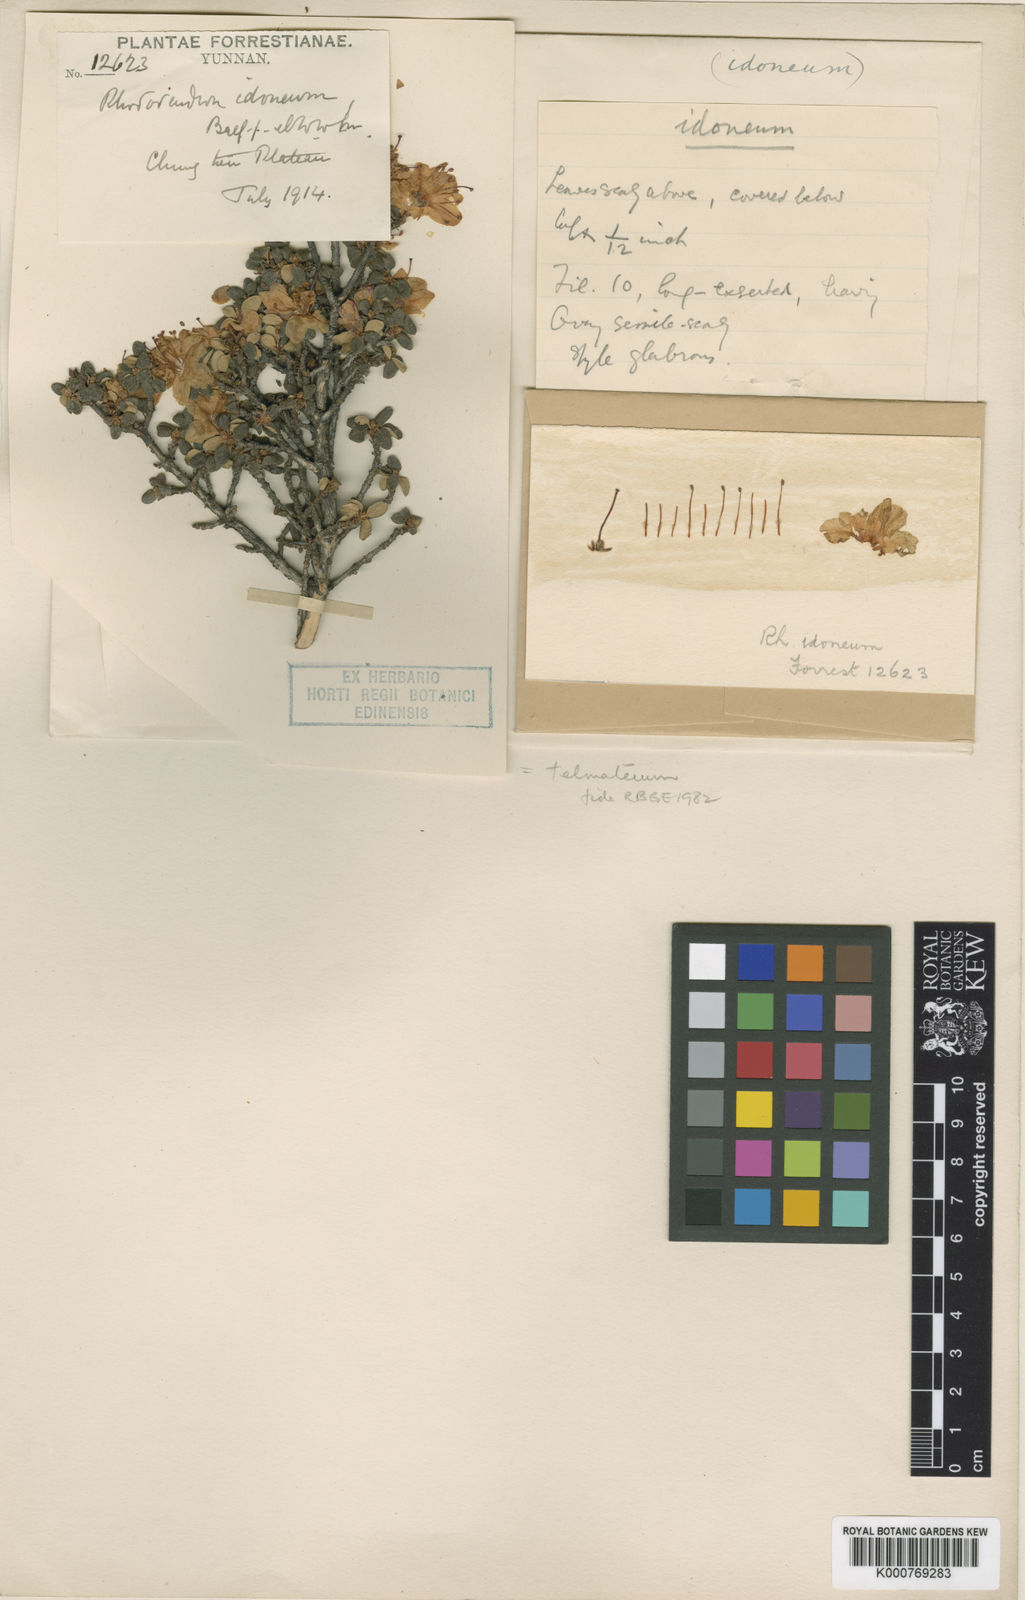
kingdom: Plantae
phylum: Tracheophyta
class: Magnoliopsida
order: Ericales
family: Ericaceae
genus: Rhododendron
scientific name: Rhododendron telmateium
